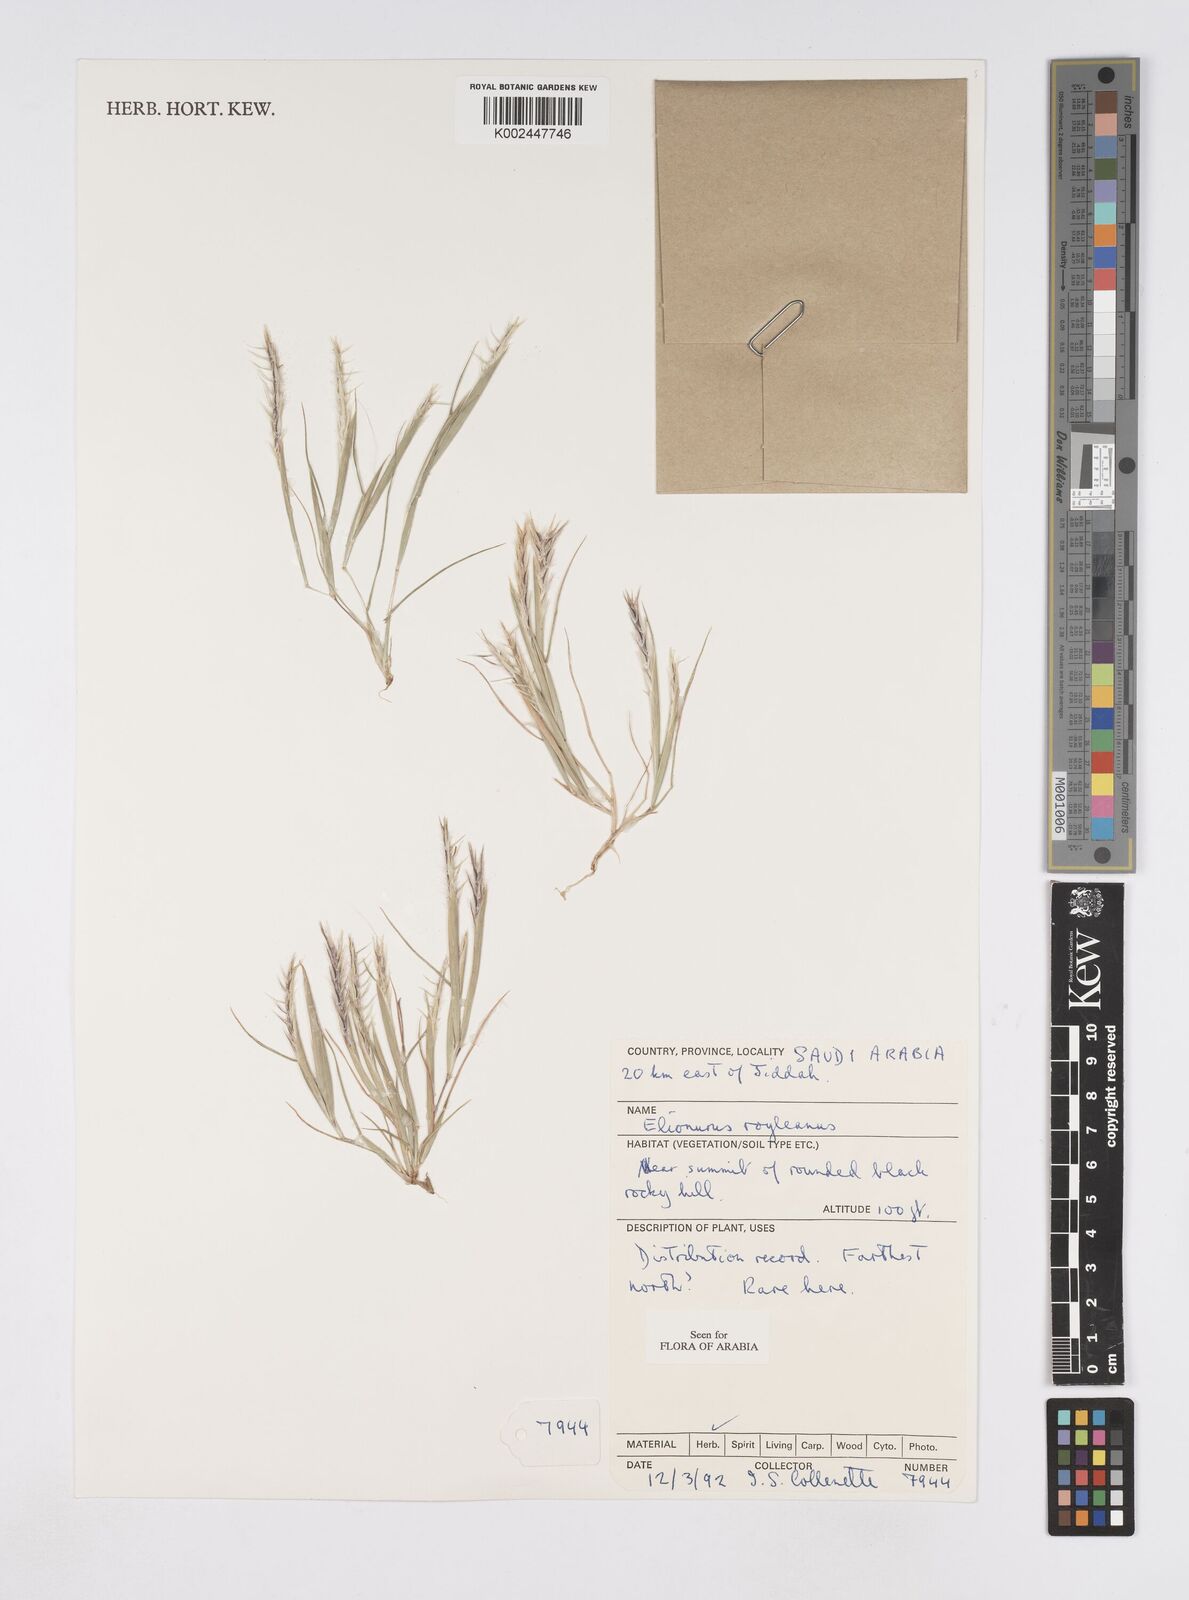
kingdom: Plantae
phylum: Tracheophyta
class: Liliopsida
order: Poales
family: Poaceae
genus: Elionurus
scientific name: Elionurus royleanus
